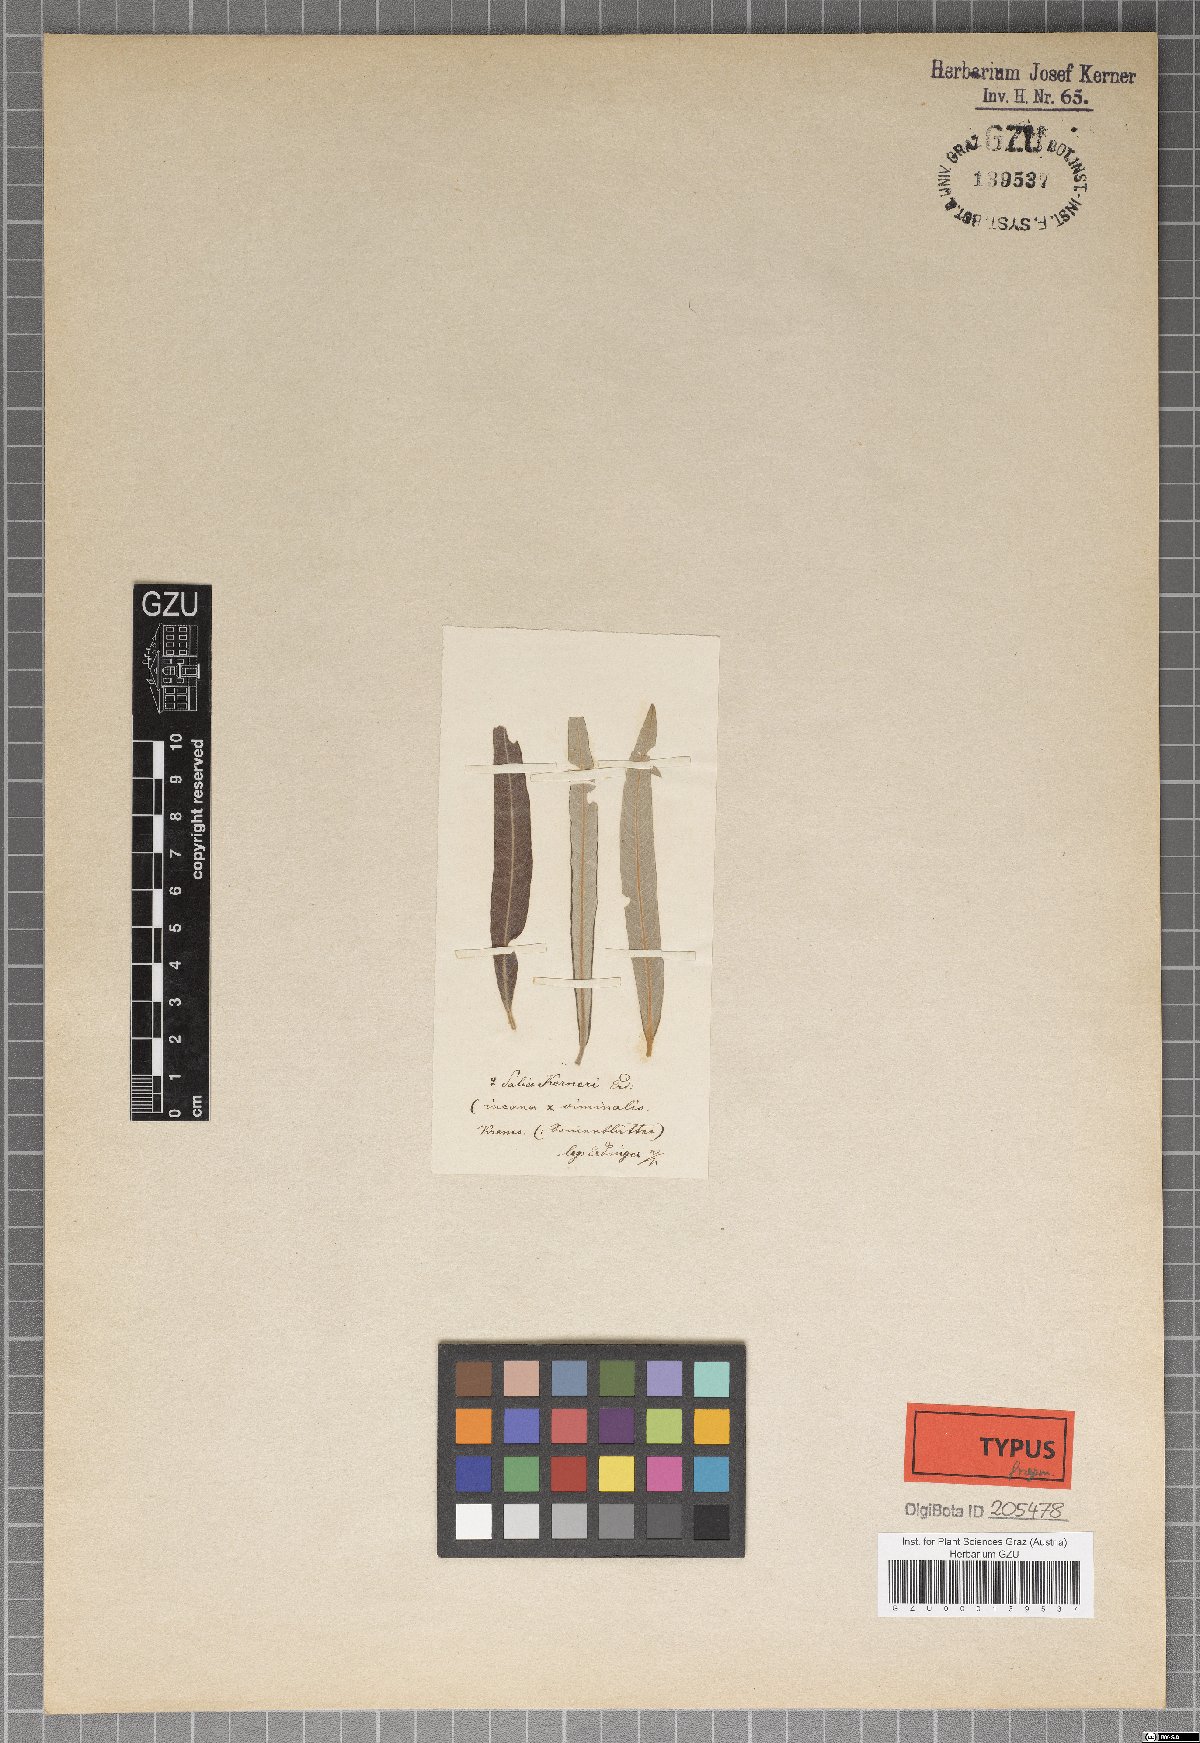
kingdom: Plantae
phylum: Tracheophyta
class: Magnoliopsida
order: Malpighiales
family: Salicaceae
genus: Salix
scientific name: Salix kerneri
